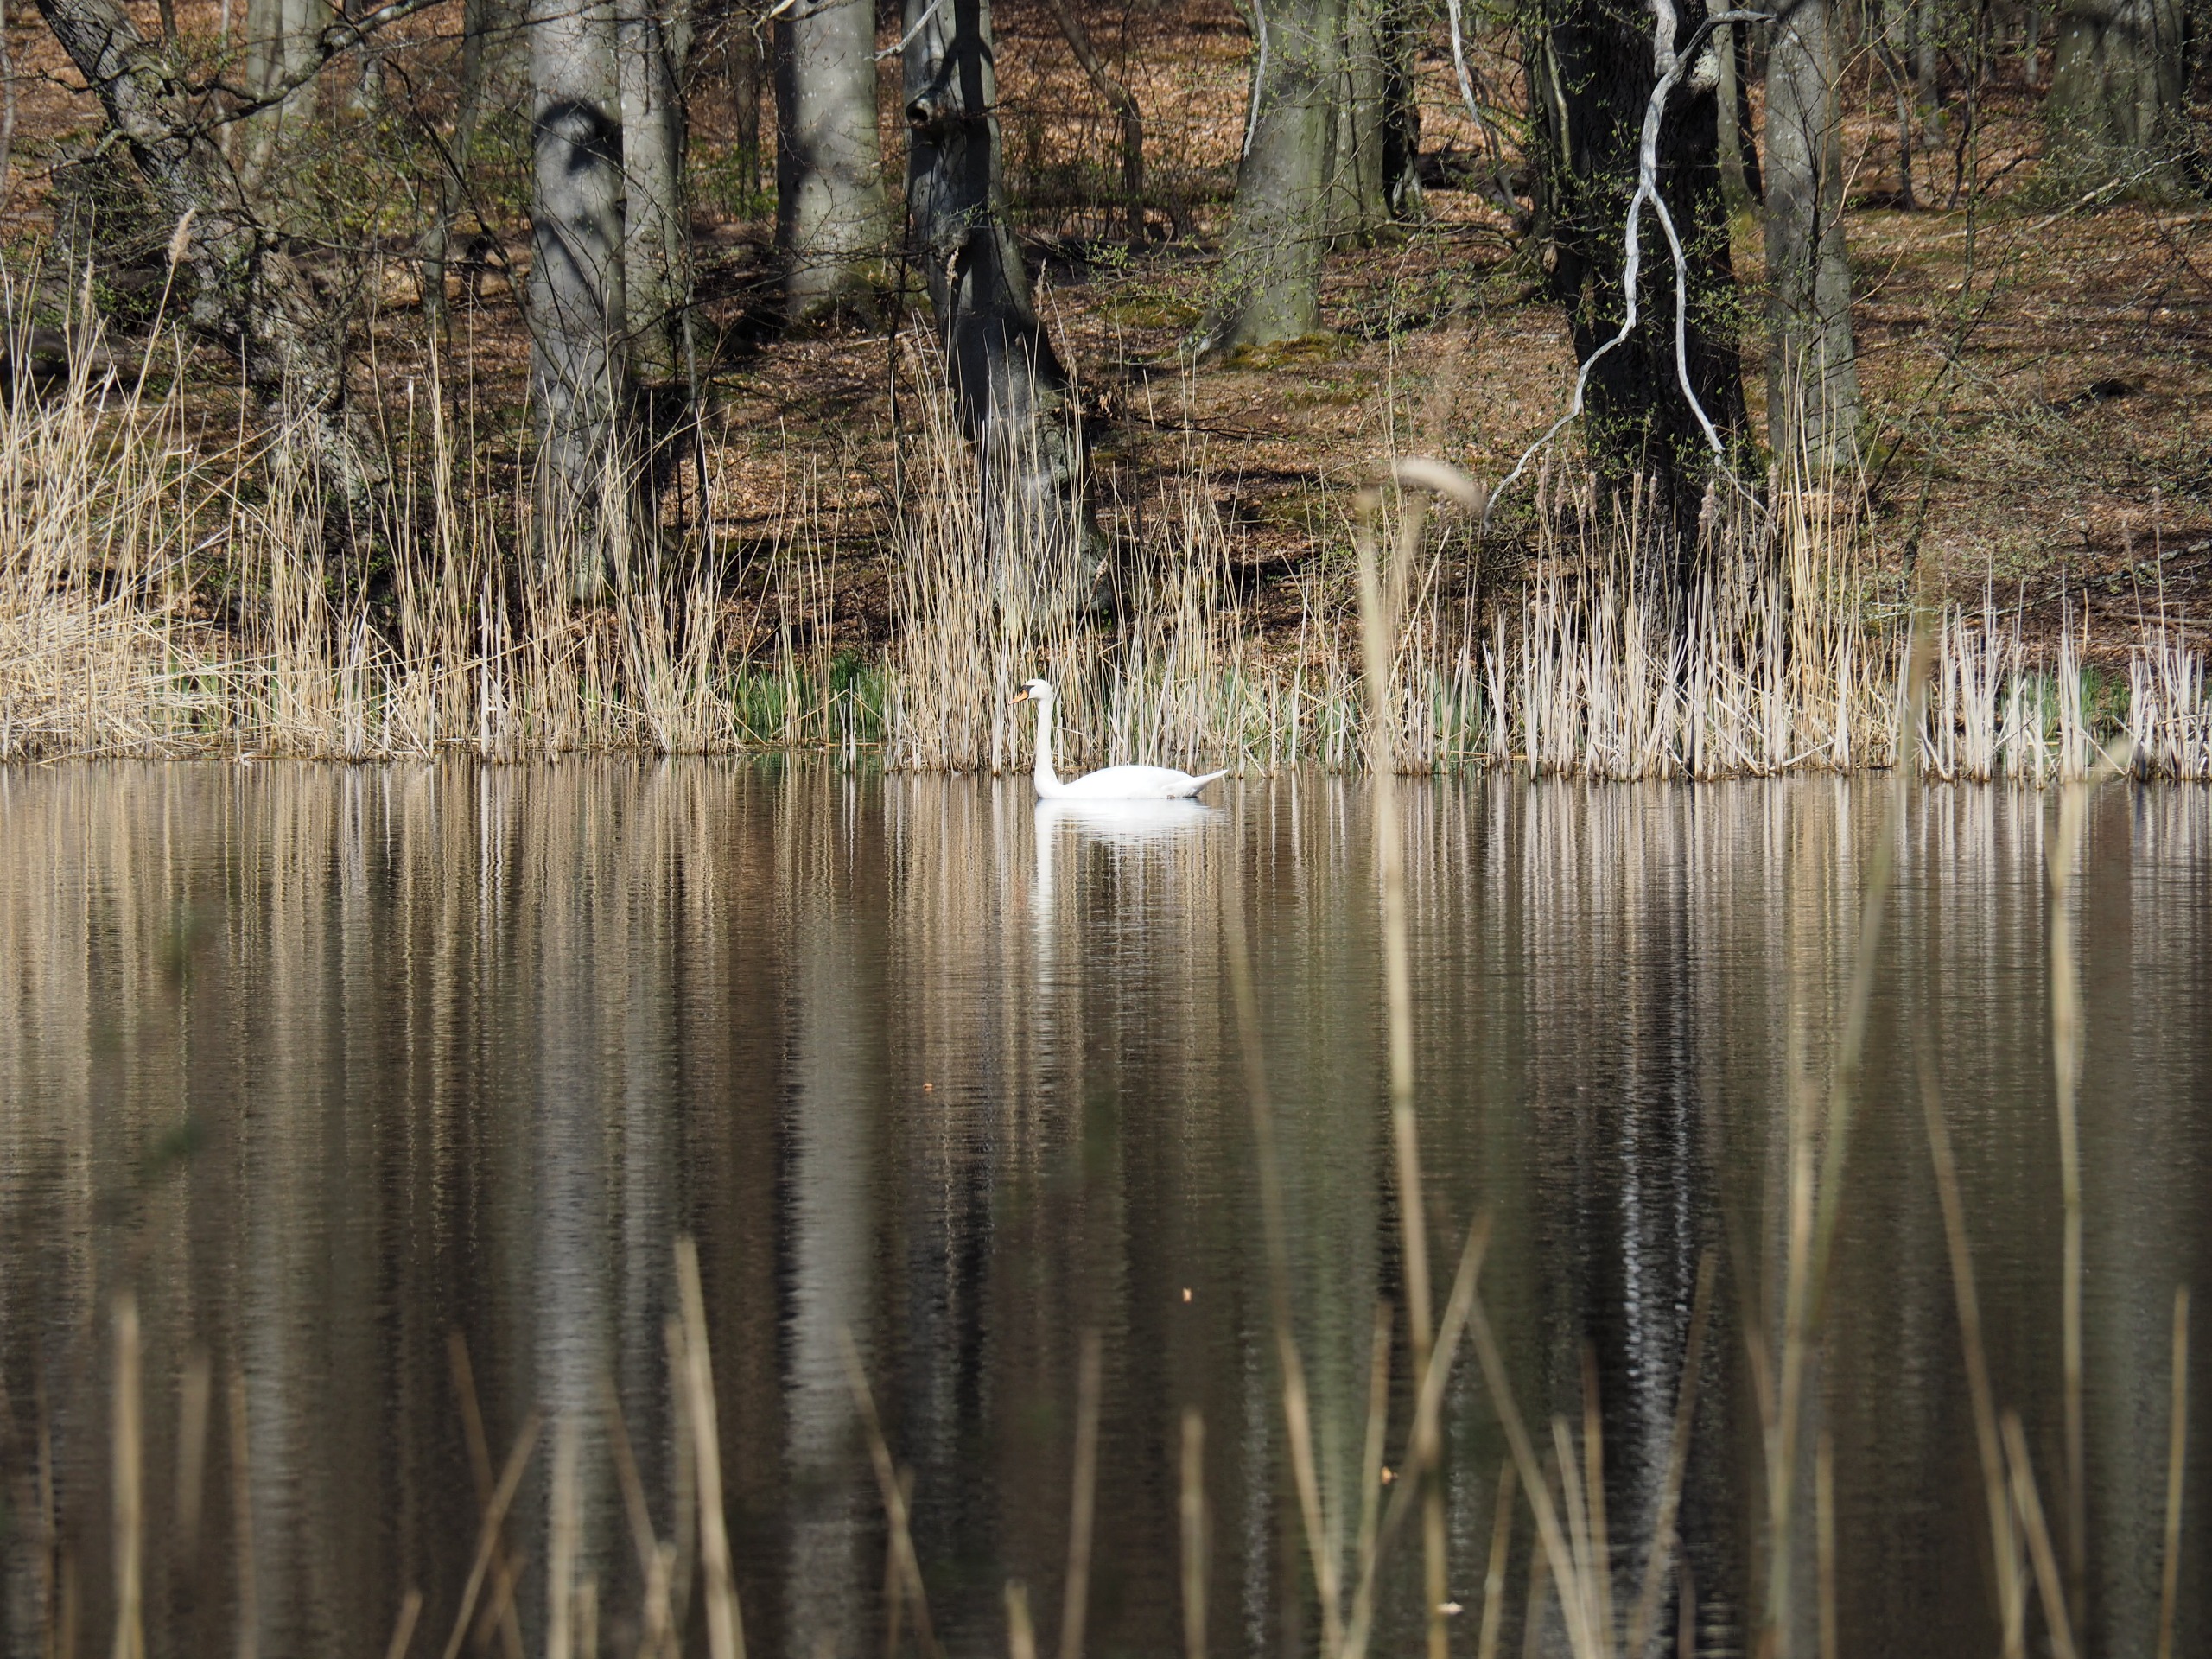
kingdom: Animalia
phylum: Chordata
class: Aves
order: Anseriformes
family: Anatidae
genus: Cygnus
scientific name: Cygnus olor
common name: Knopsvane
